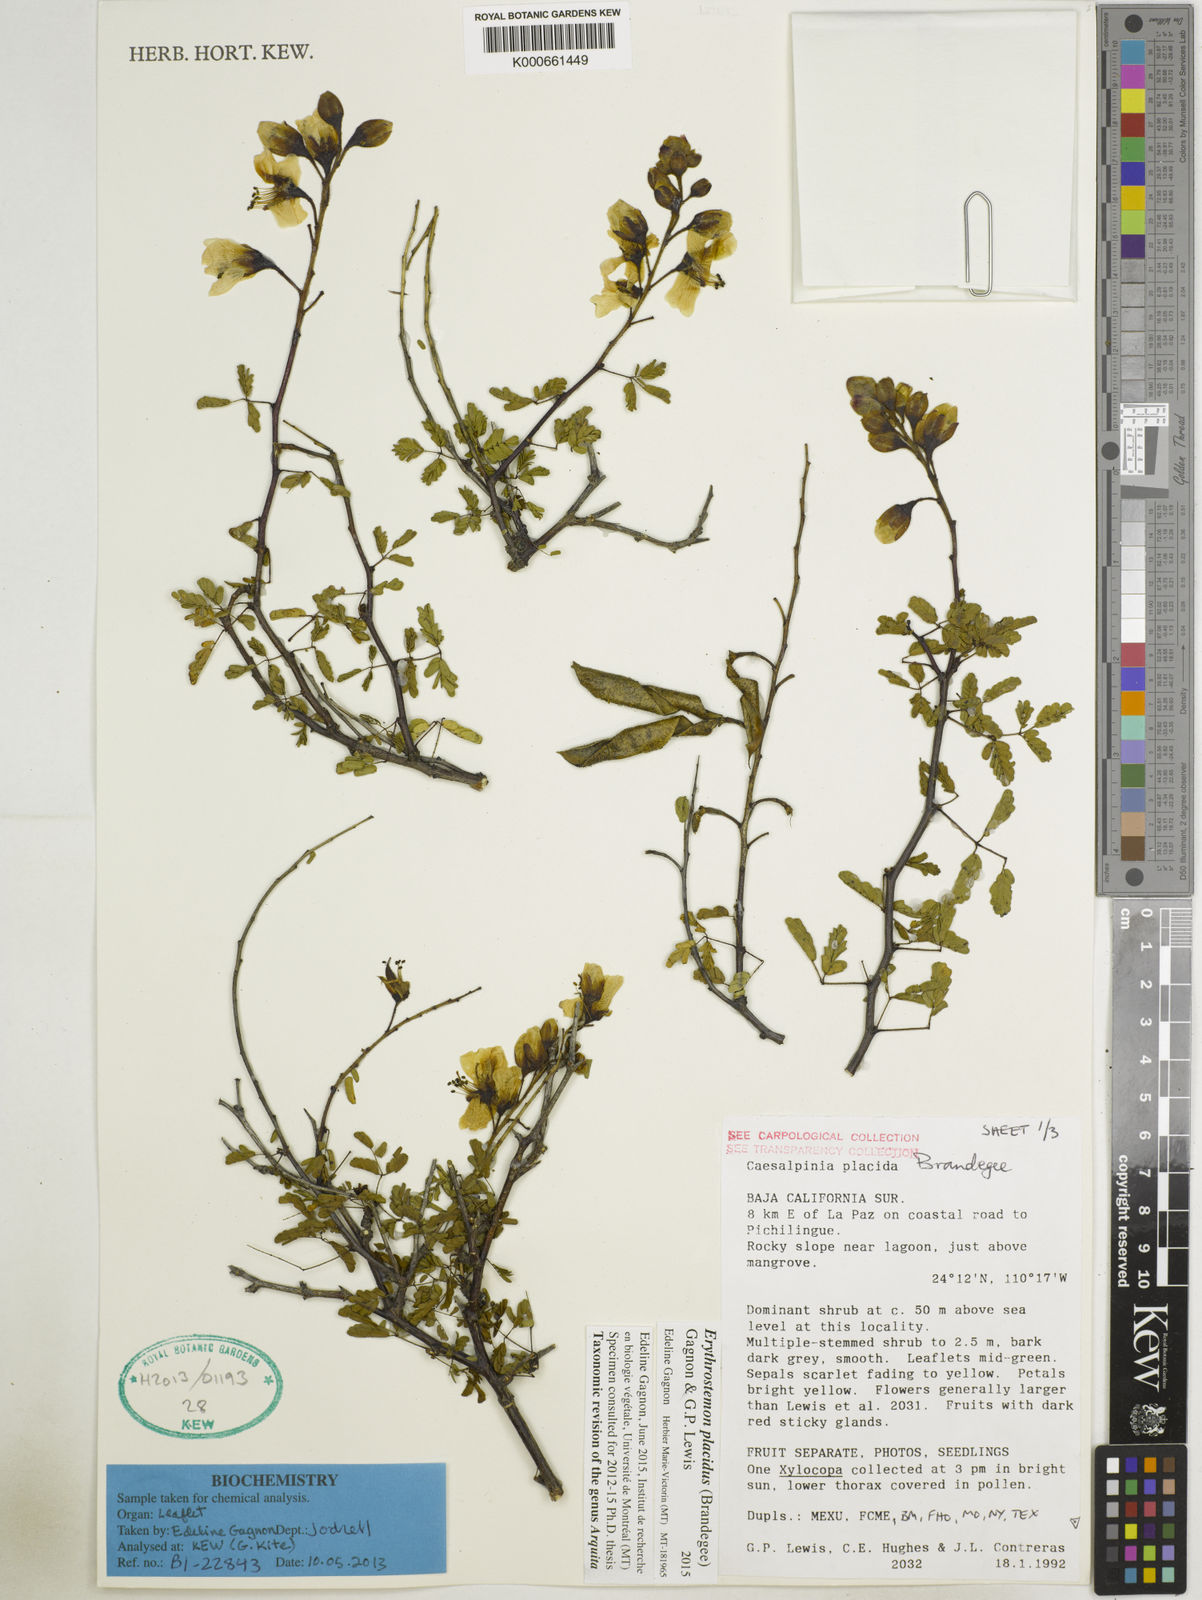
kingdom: Plantae
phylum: Tracheophyta
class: Magnoliopsida
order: Fabales
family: Fabaceae
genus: Erythrostemon
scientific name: Erythrostemon placidus
